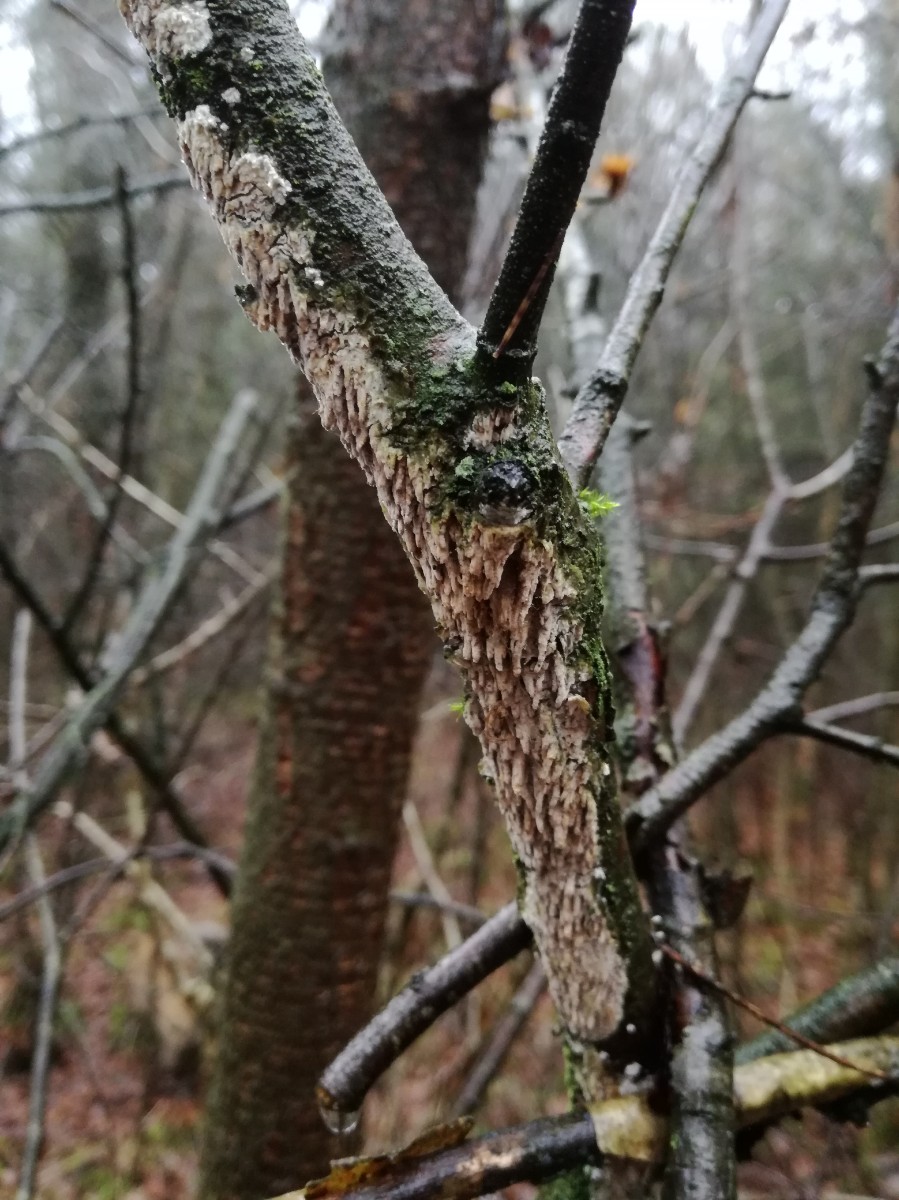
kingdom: Fungi
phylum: Basidiomycota
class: Agaricomycetes
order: Hymenochaetales
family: Schizoporaceae
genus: Xylodon
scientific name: Xylodon radula
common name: grovtandet kalkskind
